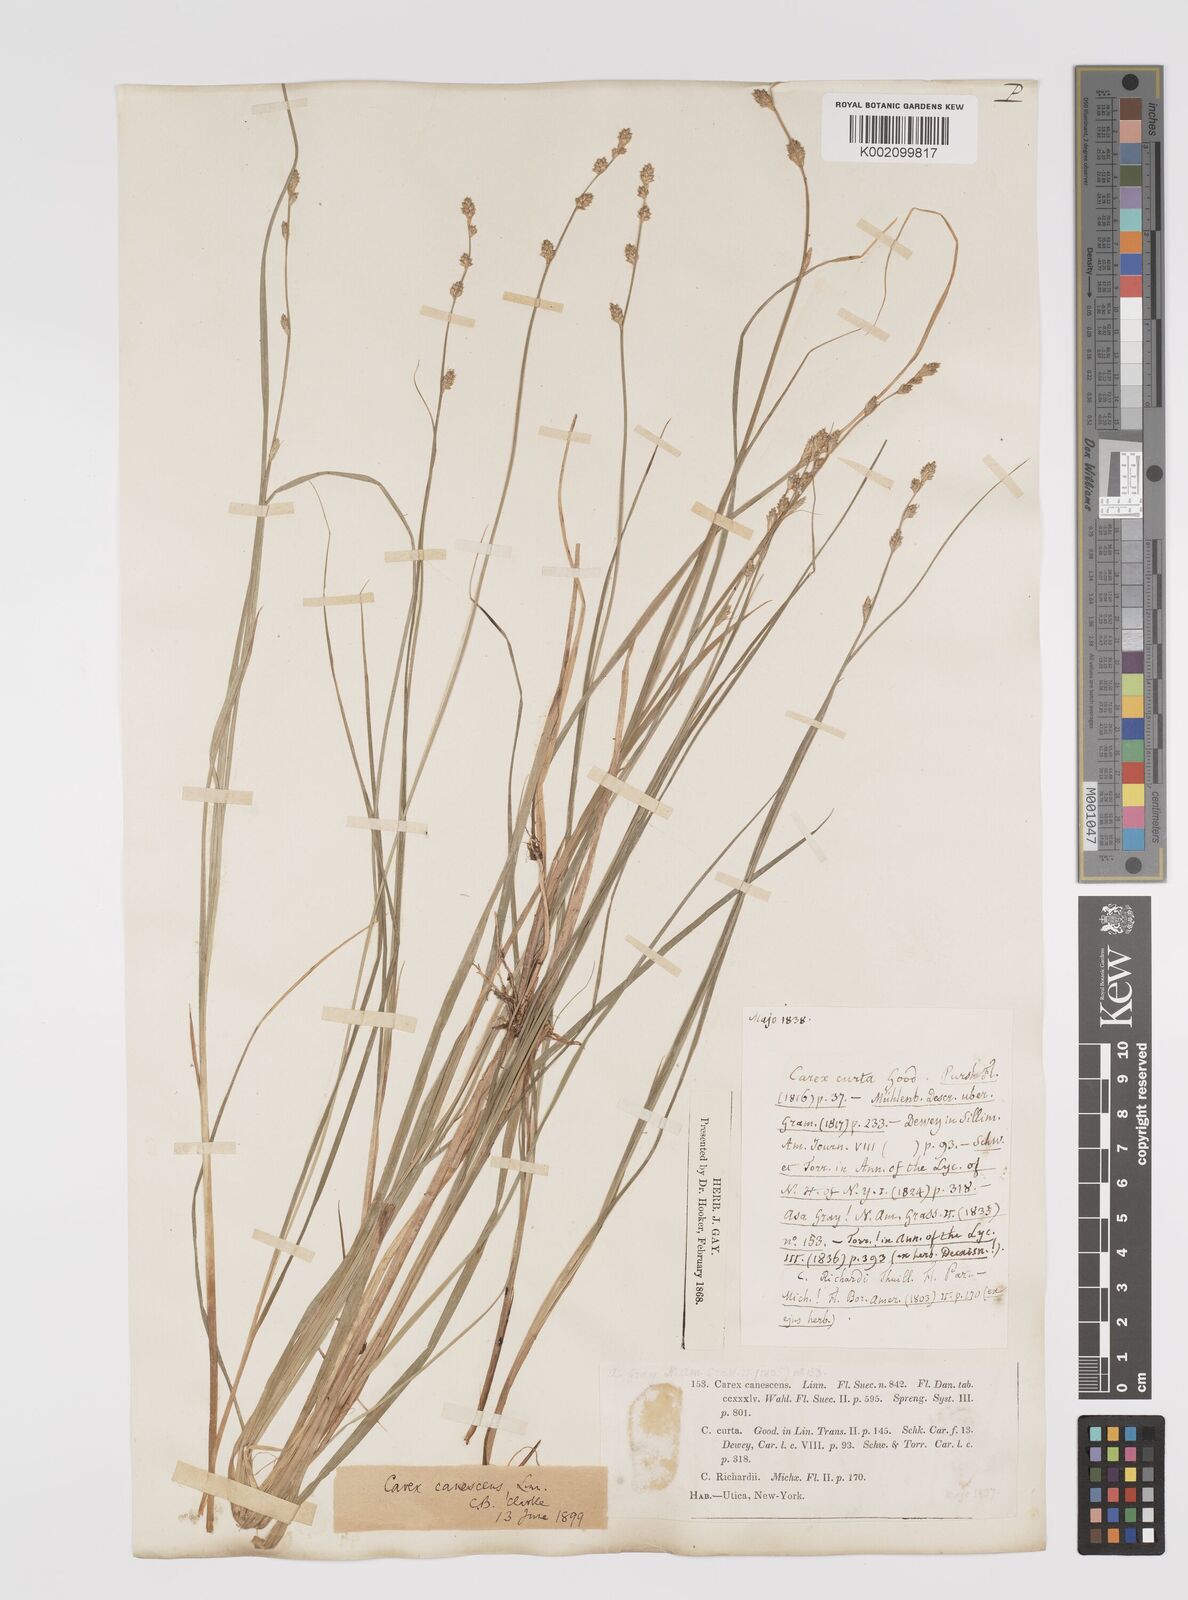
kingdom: Plantae
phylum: Tracheophyta
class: Liliopsida
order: Poales
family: Cyperaceae
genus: Carex
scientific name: Carex curta
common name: White sedge
